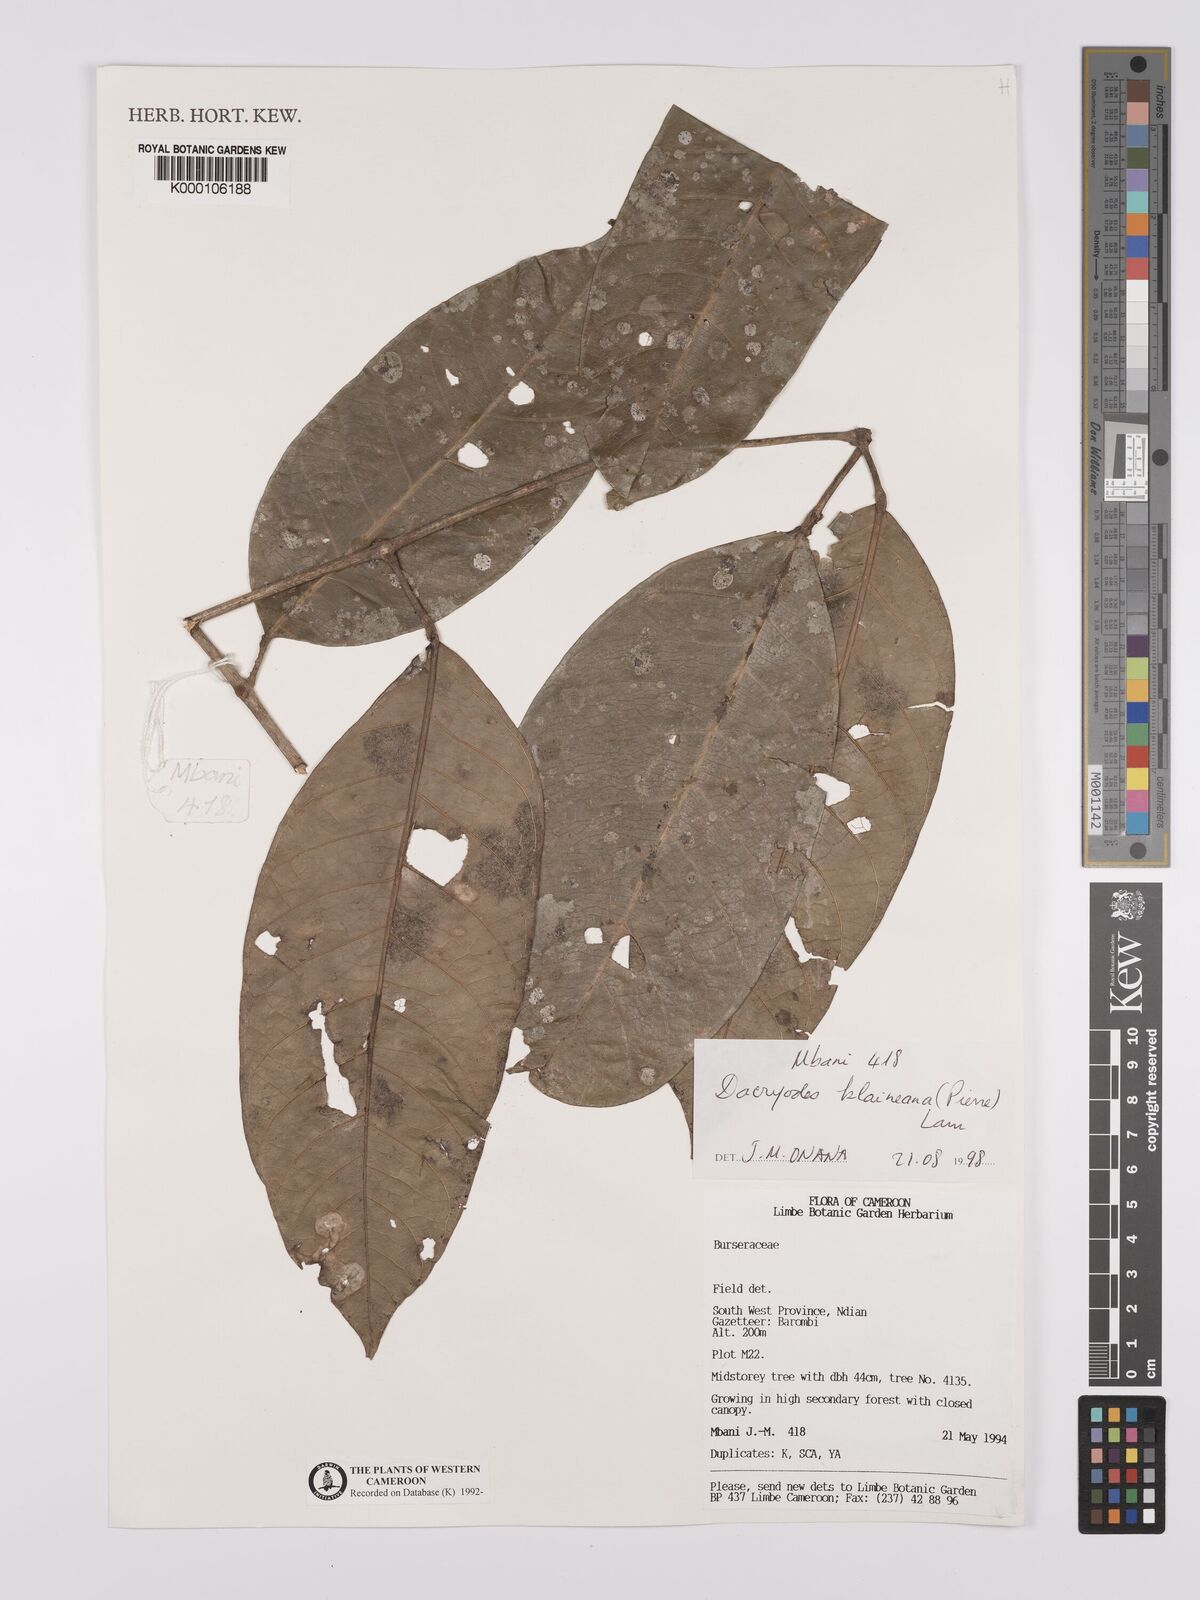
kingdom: Plantae
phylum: Tracheophyta
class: Magnoliopsida
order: Sapindales
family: Burseraceae
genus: Pachylobus
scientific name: Pachylobus klaineana
